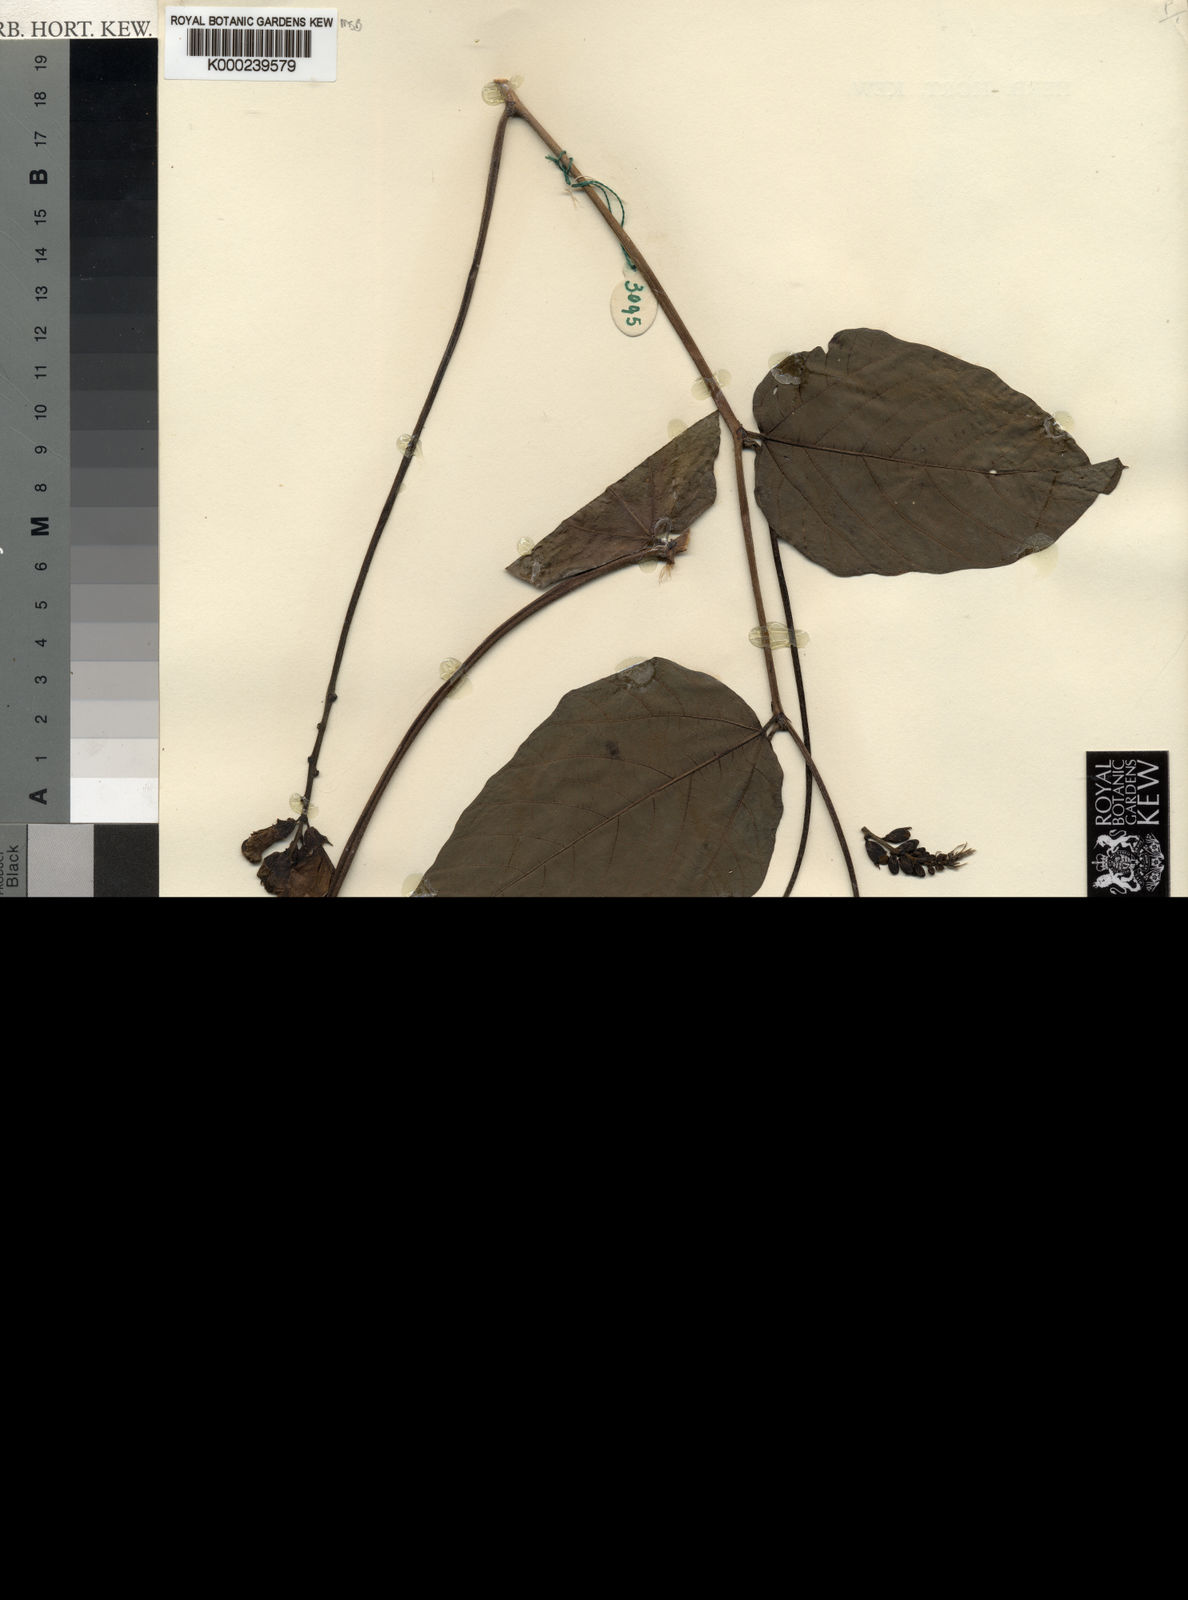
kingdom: Plantae
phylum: Tracheophyta
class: Magnoliopsida
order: Fabales
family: Fabaceae
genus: Psophocarpus
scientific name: Psophocarpus monophyllus
